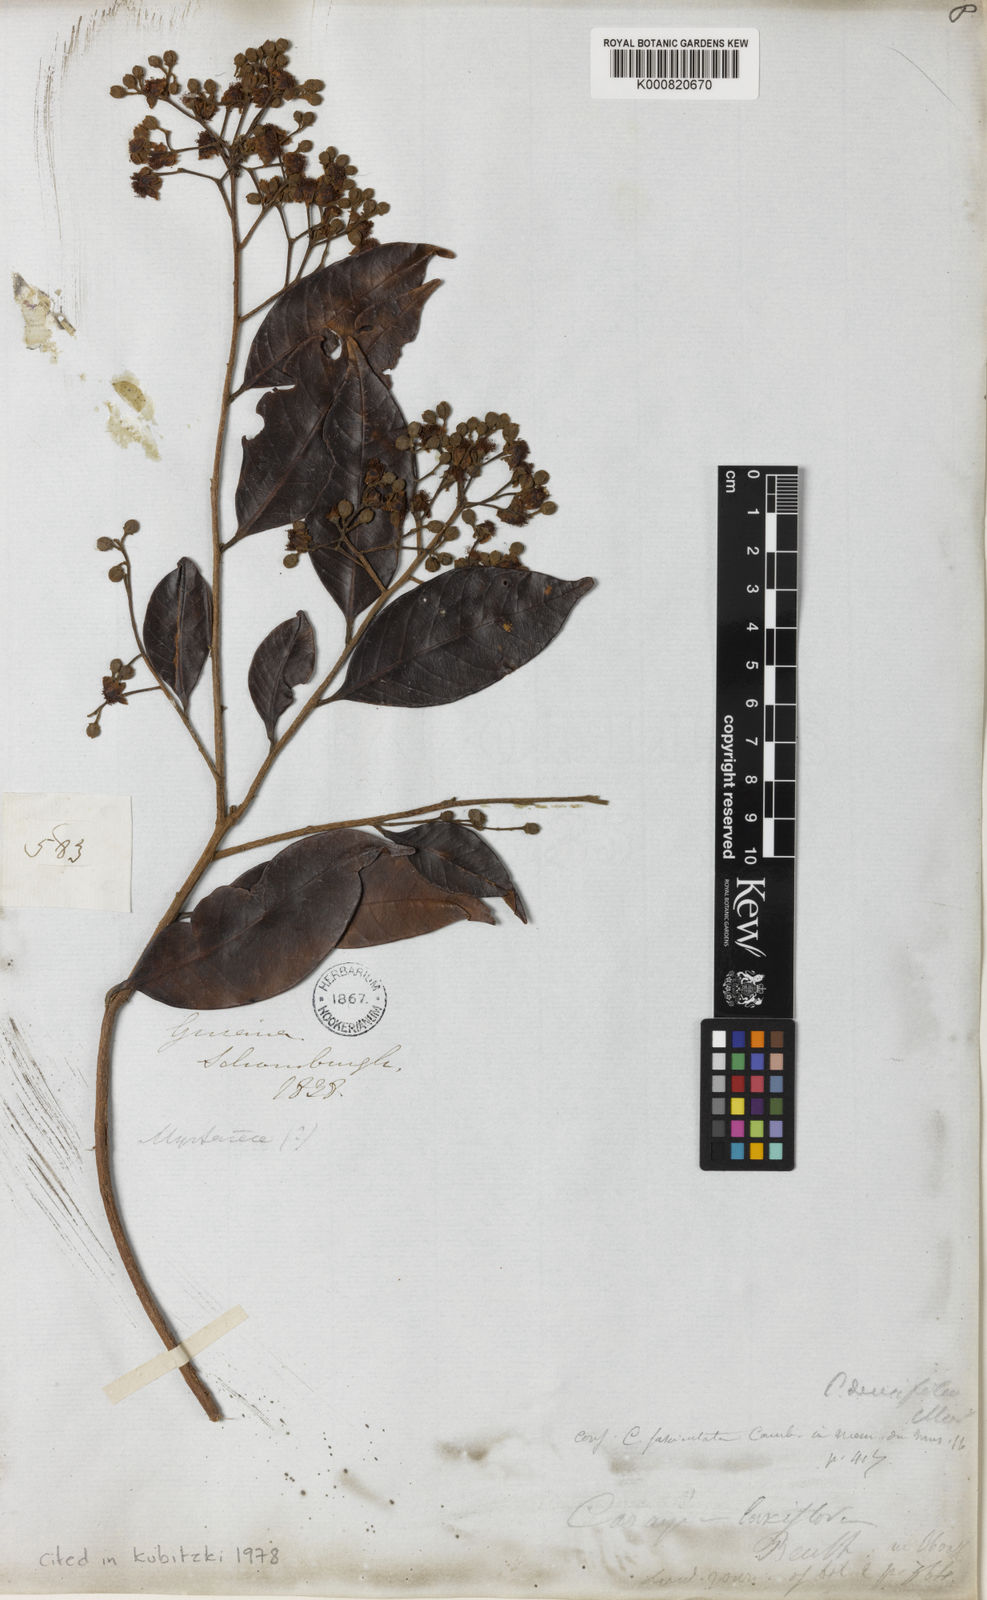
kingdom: Plantae
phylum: Tracheophyta
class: Magnoliopsida
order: Malpighiales
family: Calophyllaceae
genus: Caraipa
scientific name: Caraipa densifolia
